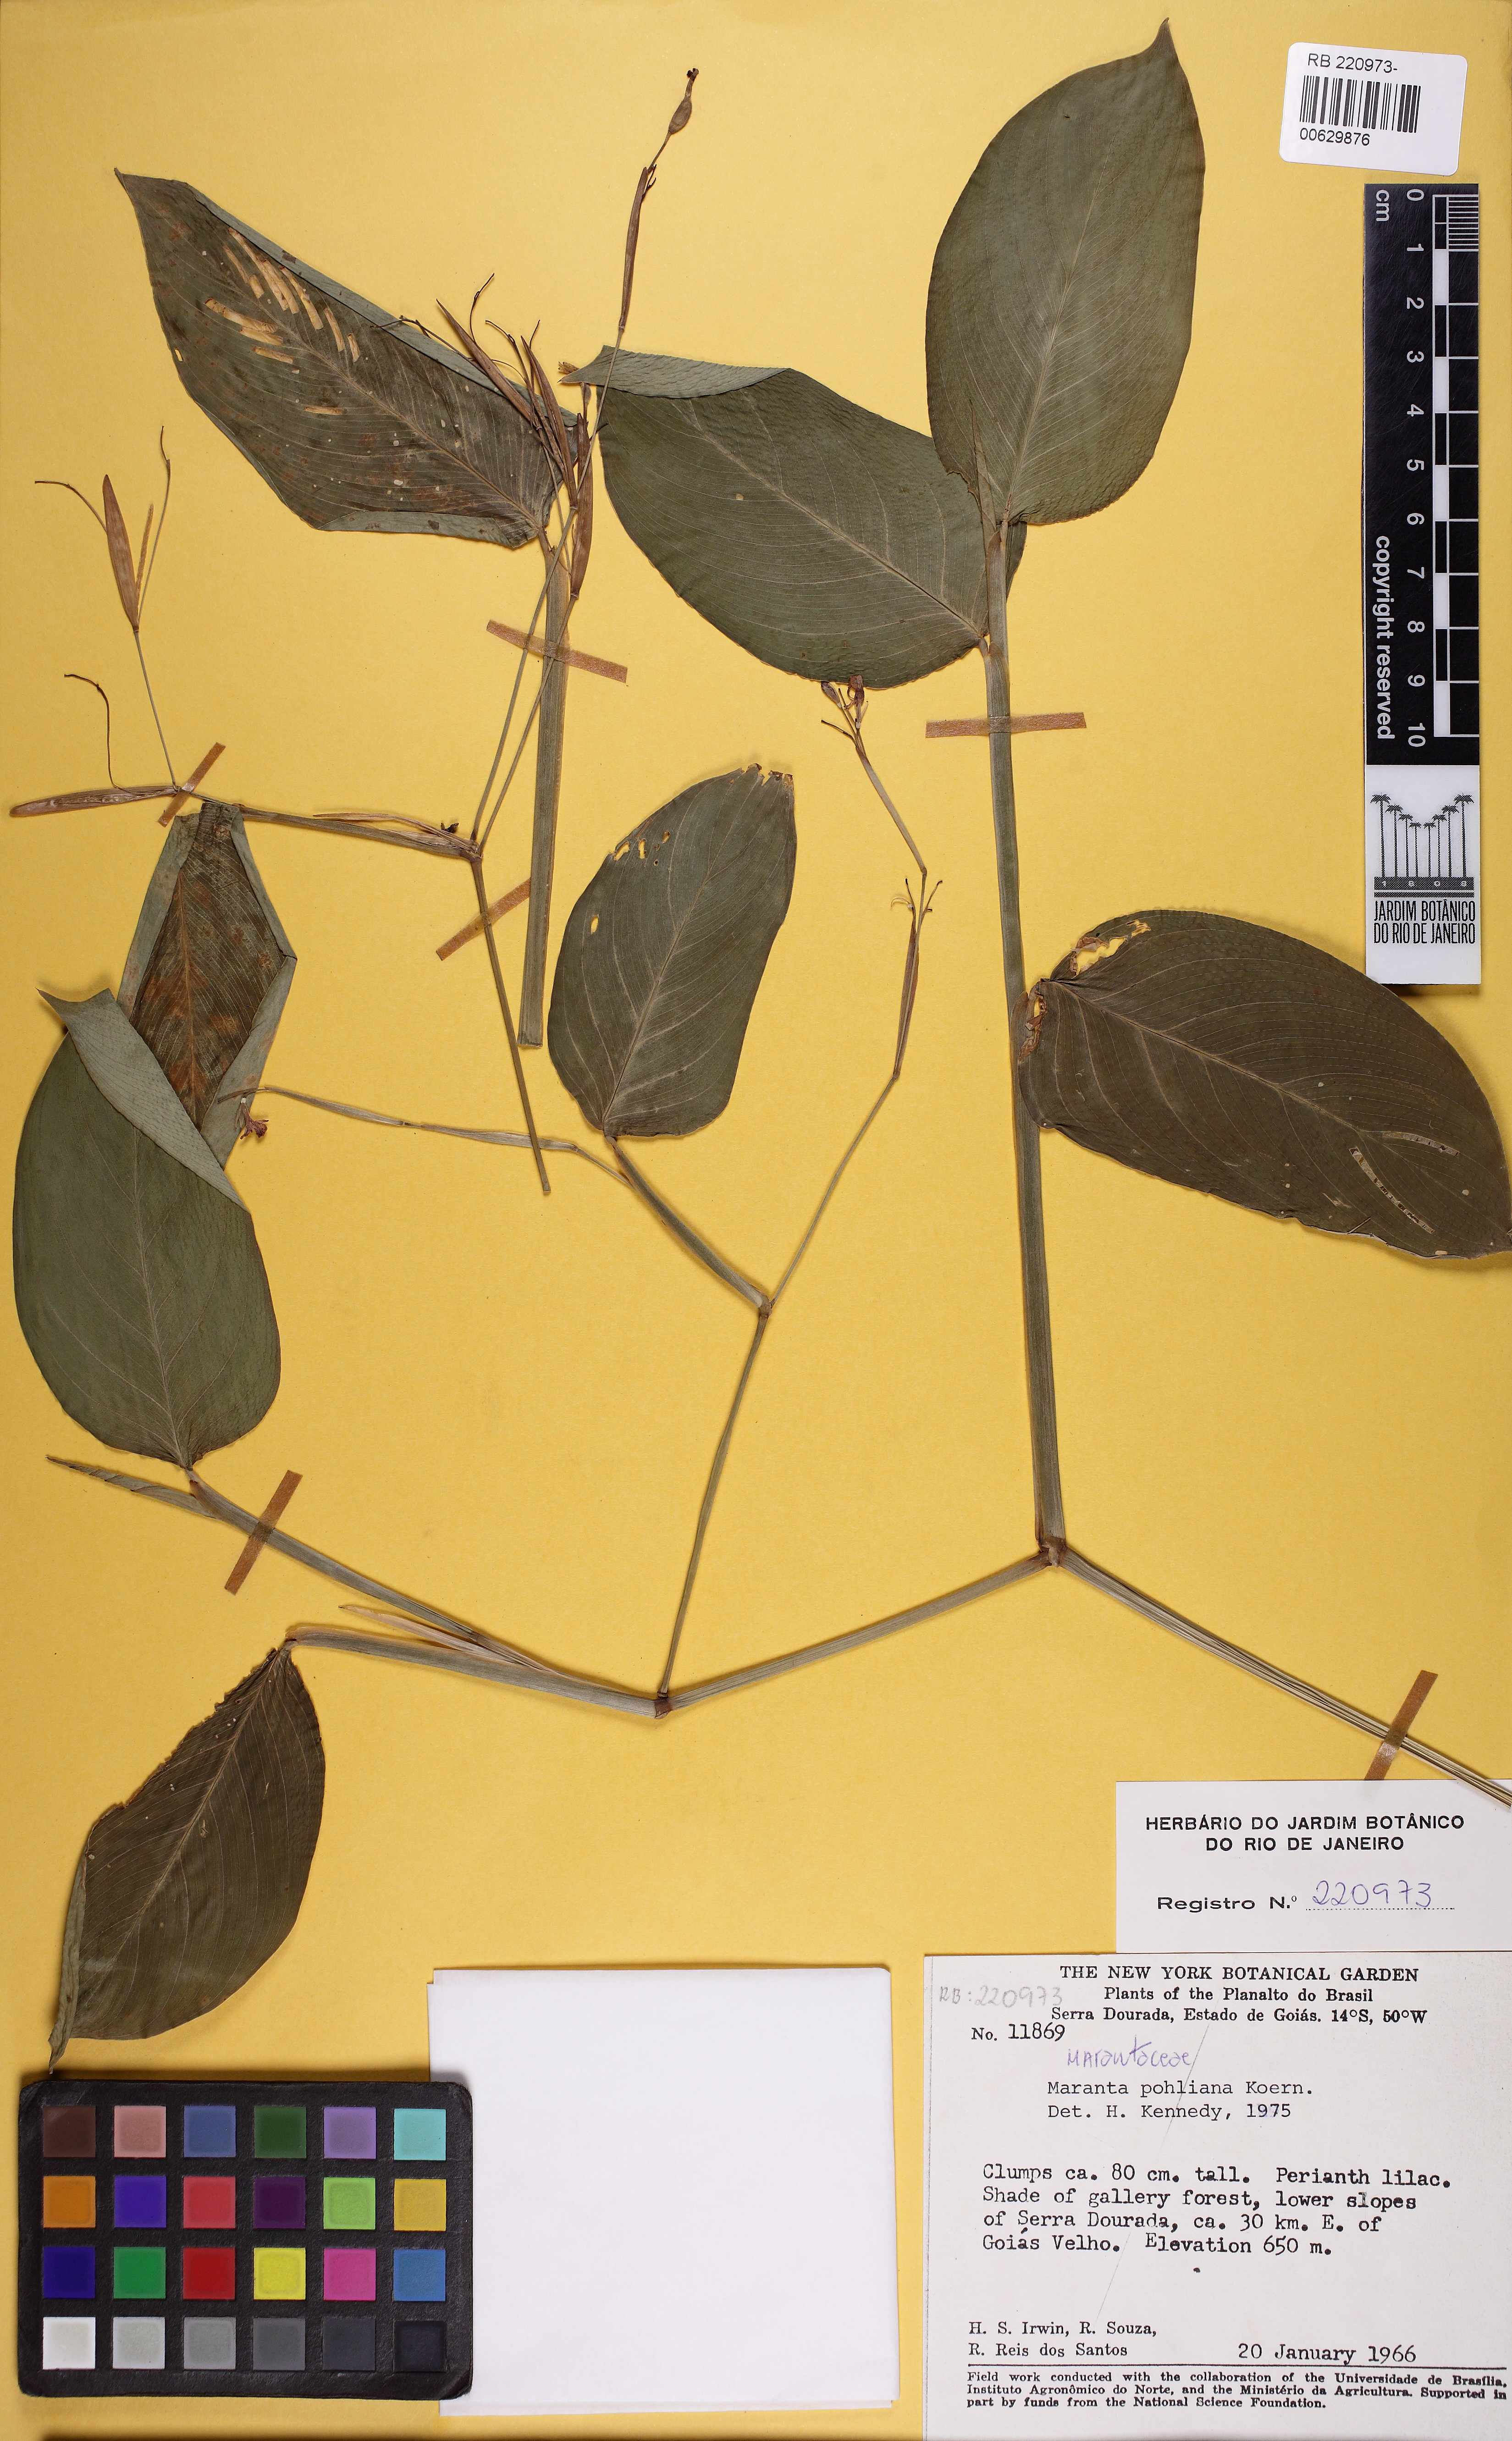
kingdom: Plantae
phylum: Tracheophyta
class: Liliopsida
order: Zingiberales
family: Marantaceae
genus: Maranta
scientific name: Maranta pohliana
